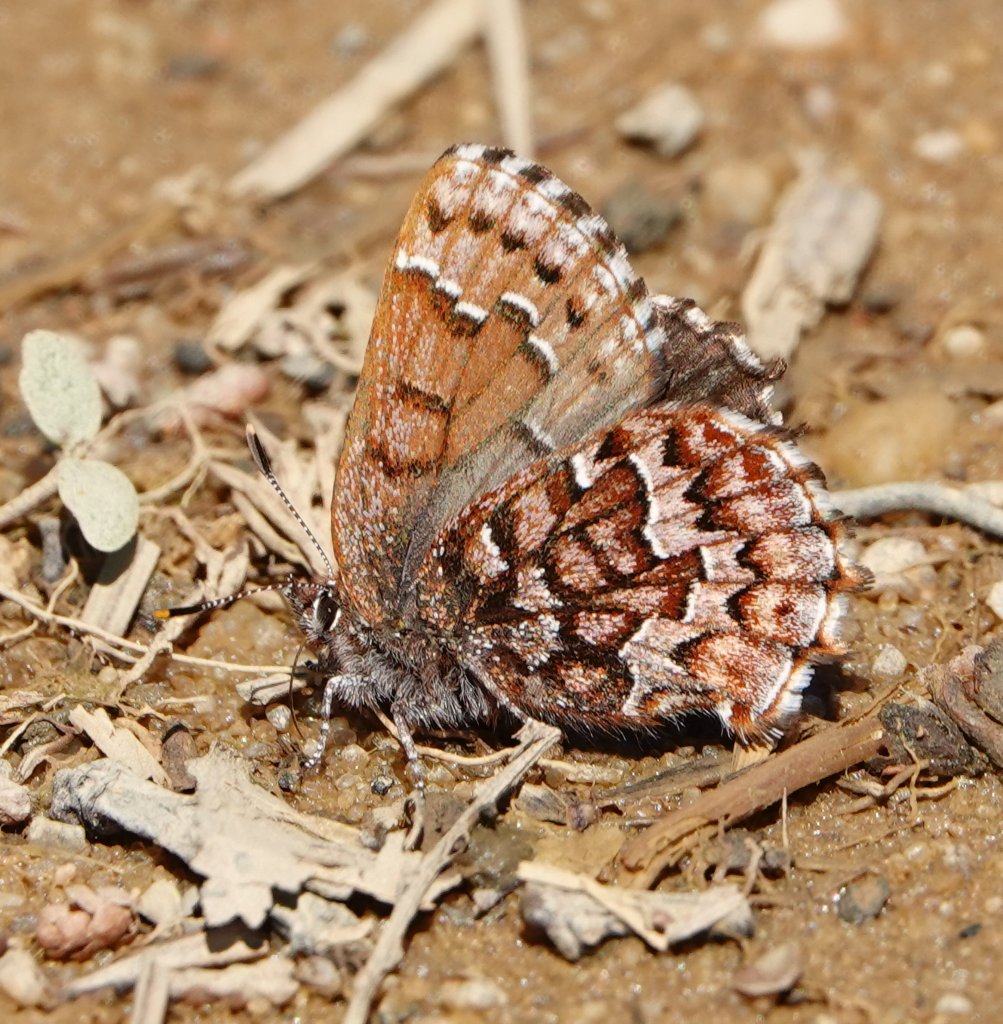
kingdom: Animalia
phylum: Arthropoda
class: Insecta
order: Lepidoptera
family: Lycaenidae
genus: Incisalia
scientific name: Incisalia niphon
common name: Eastern Pine Elfin
